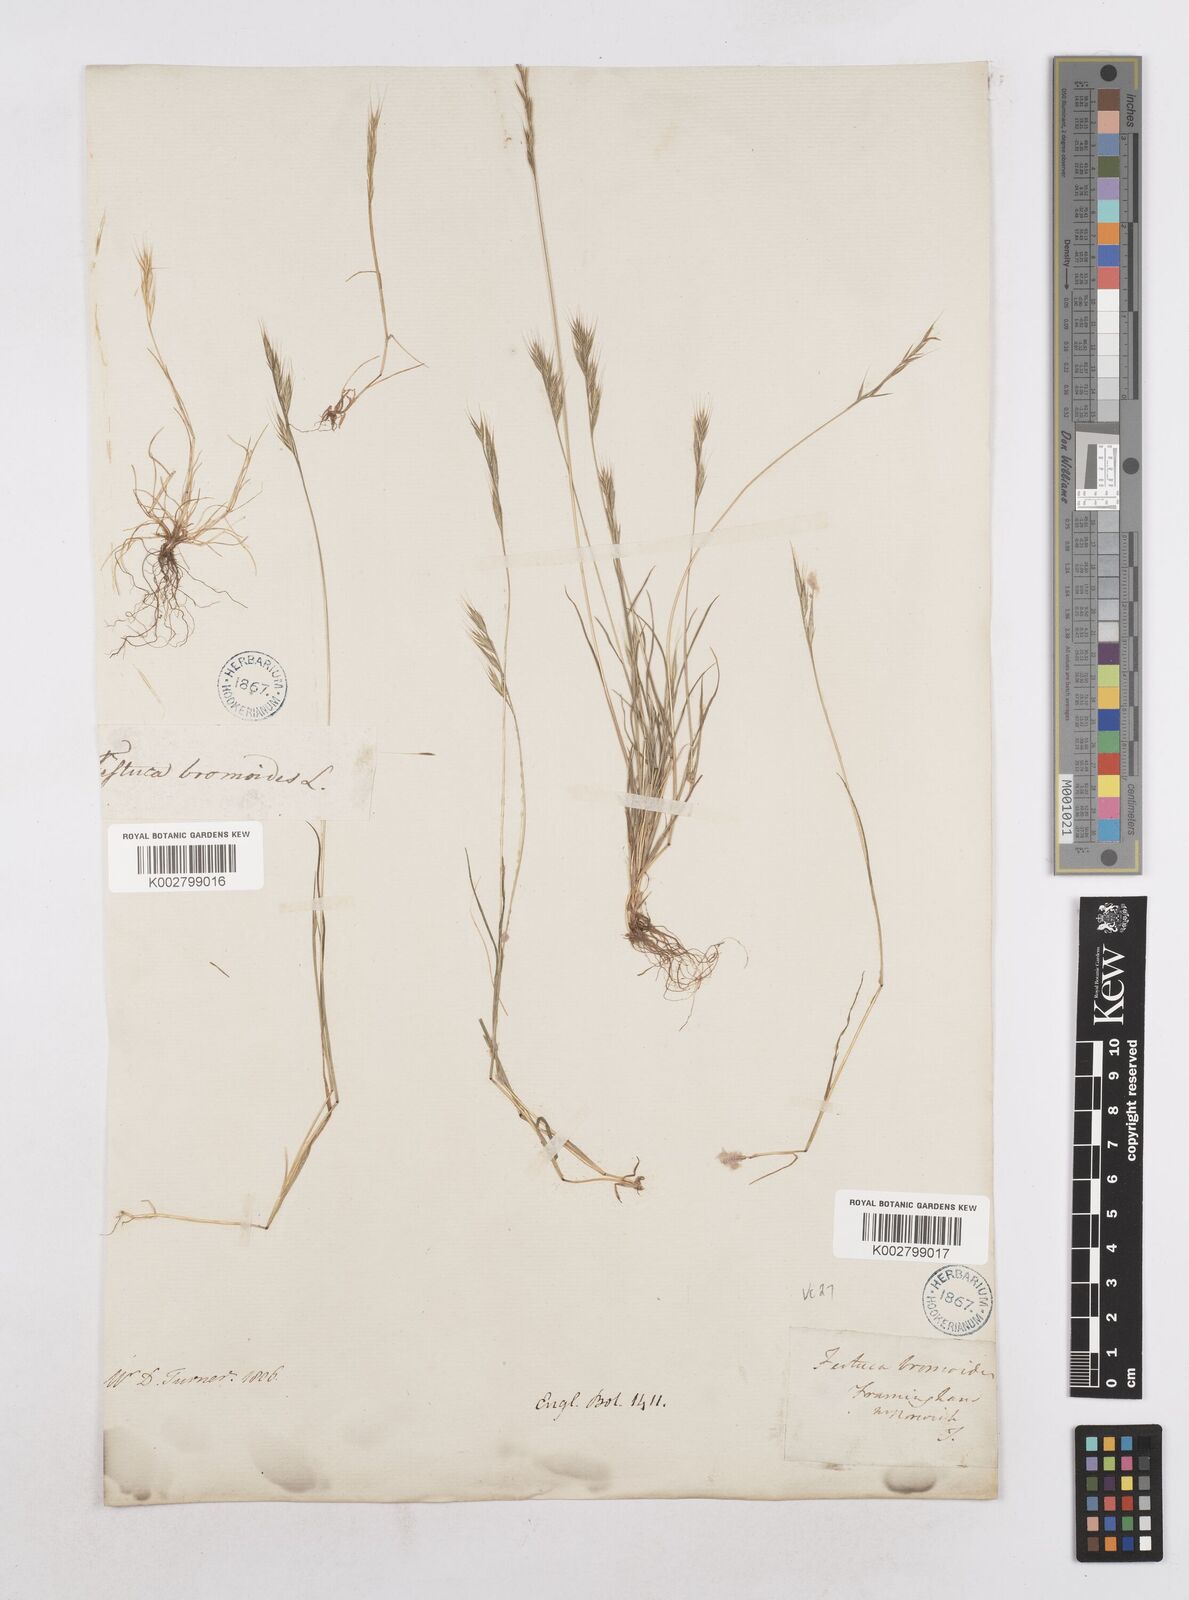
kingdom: Plantae
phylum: Tracheophyta
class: Liliopsida
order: Poales
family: Poaceae
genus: Festuca
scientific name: Festuca bromoides
